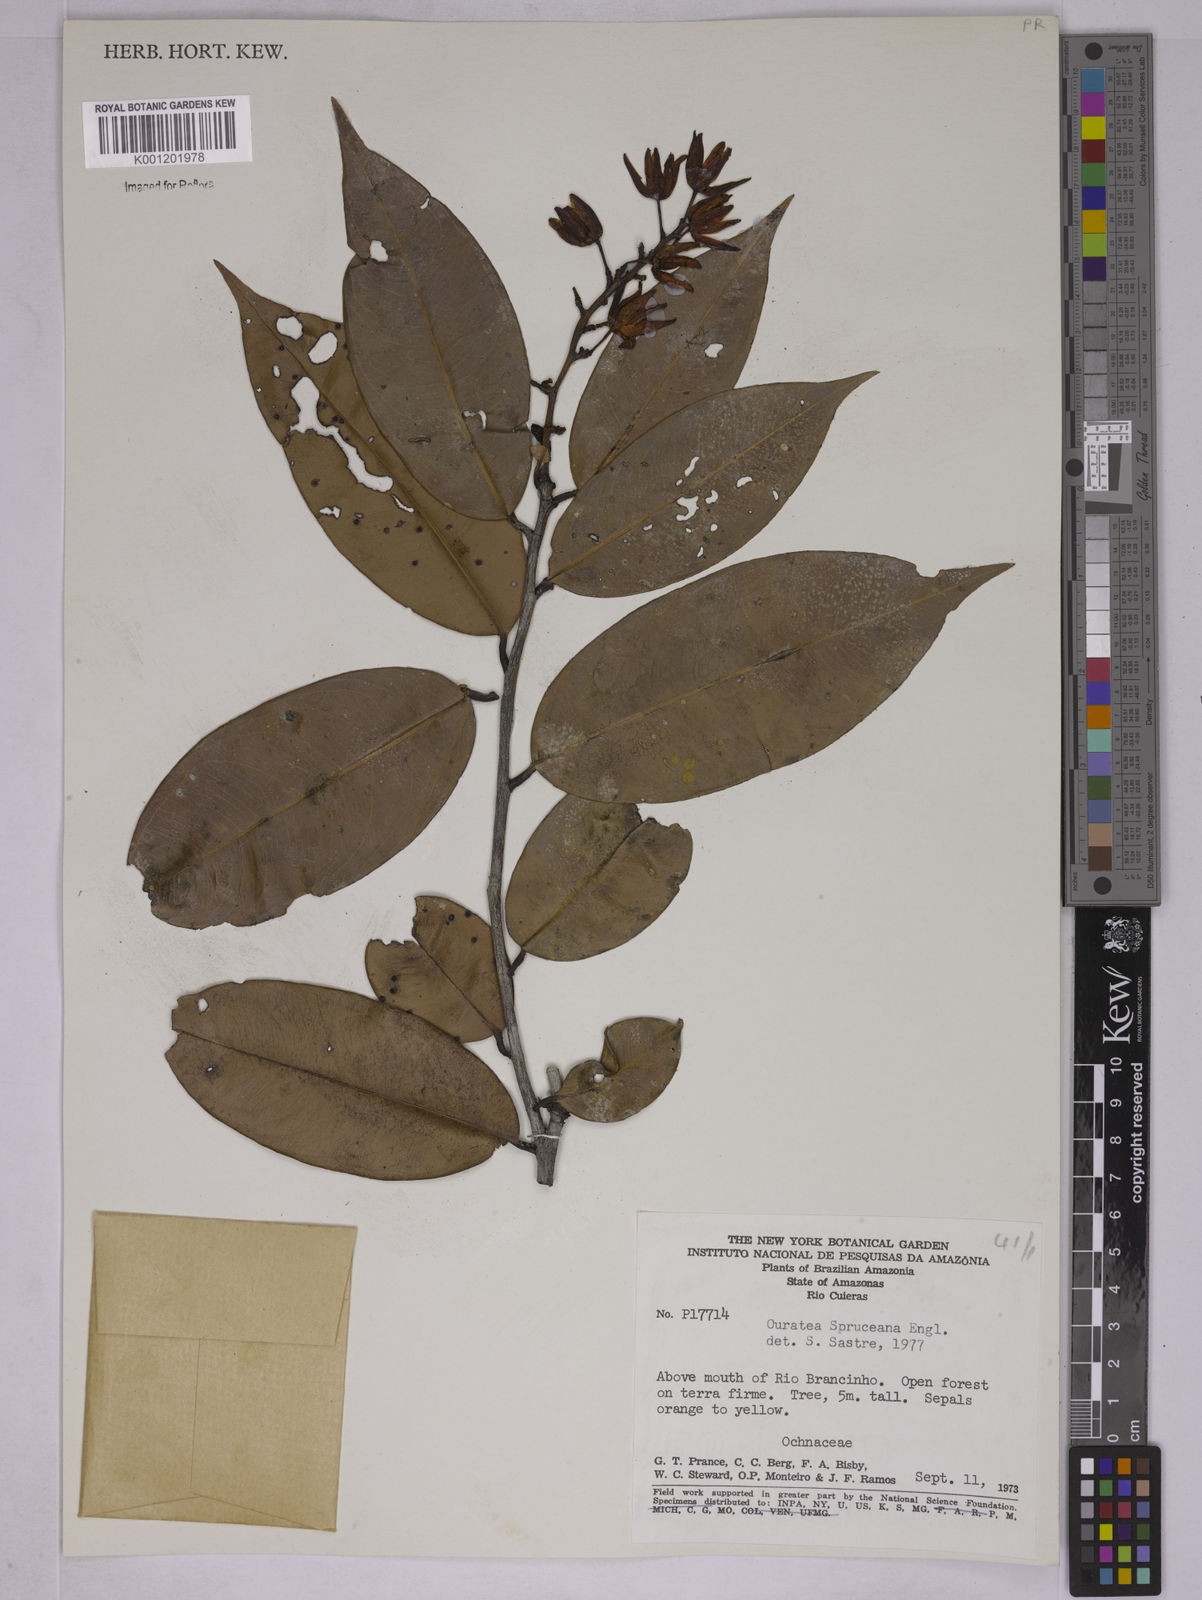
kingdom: Plantae
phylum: Tracheophyta
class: Magnoliopsida
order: Malpighiales
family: Ochnaceae
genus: Ouratea
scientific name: Ouratea spruceana
